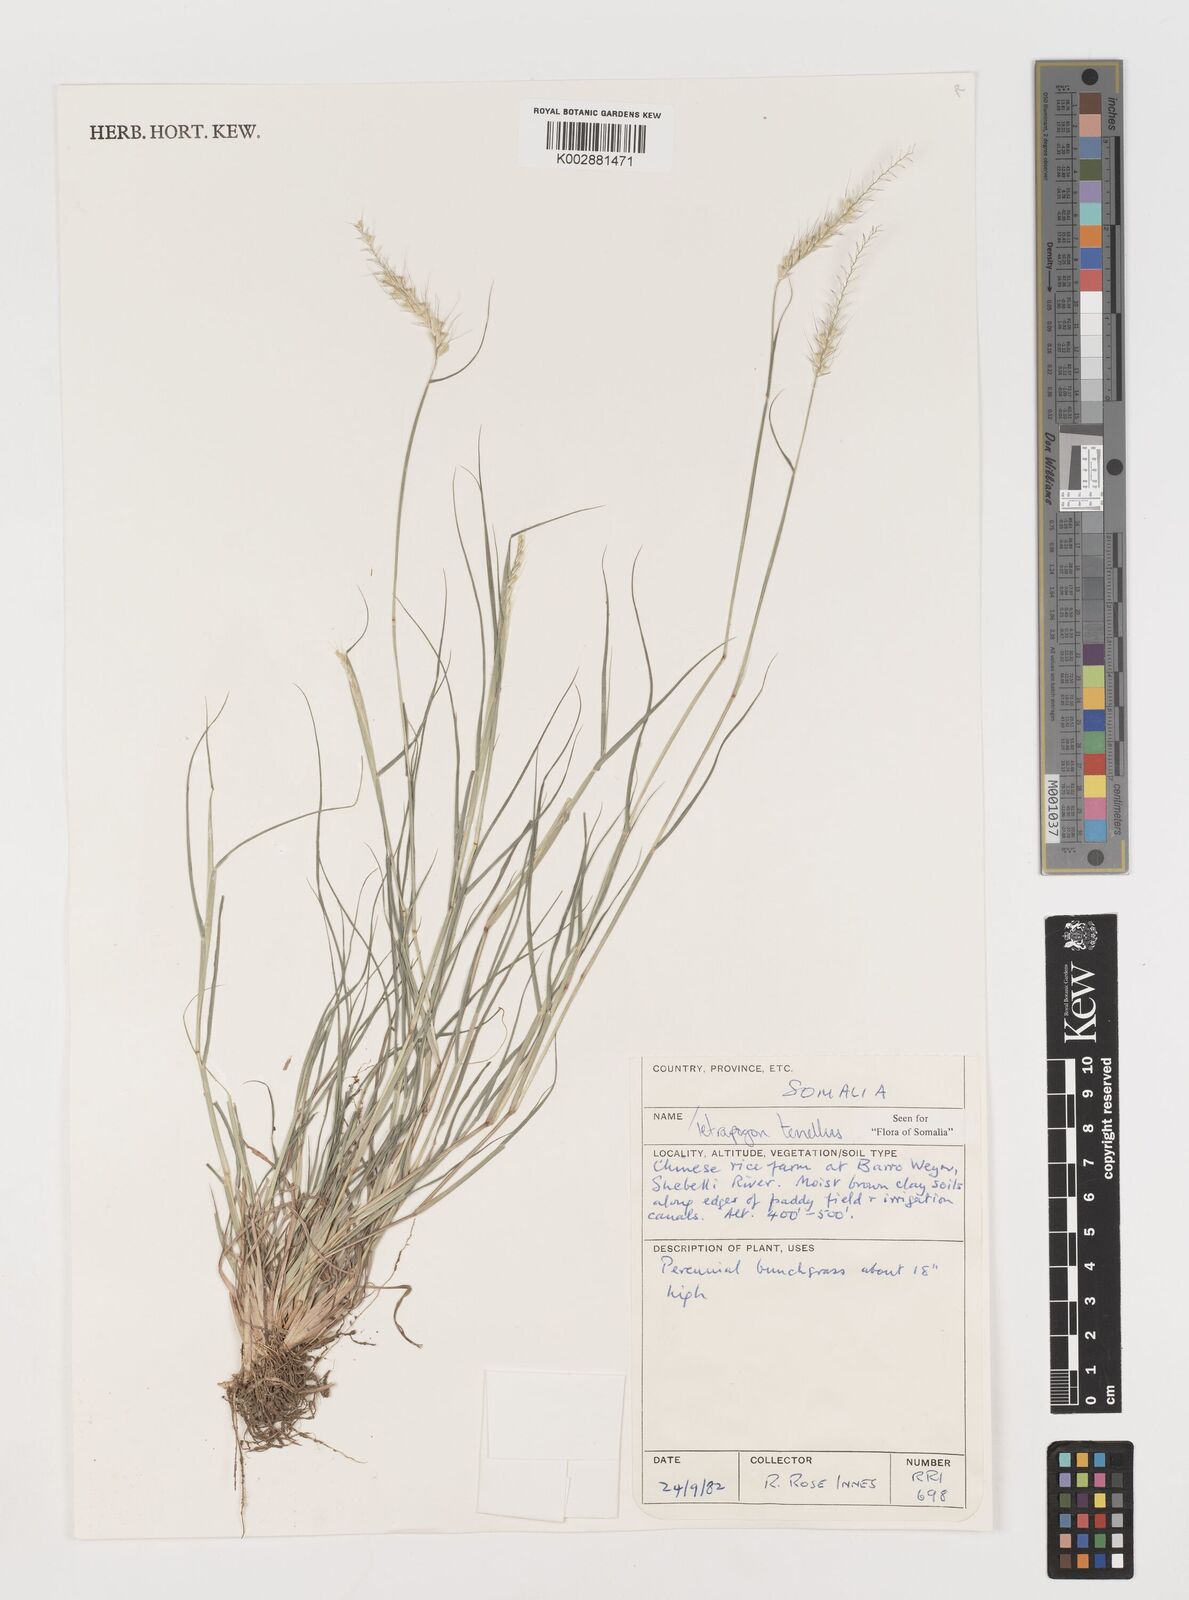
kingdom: Plantae
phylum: Tracheophyta
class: Liliopsida
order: Poales
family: Poaceae
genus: Tetrapogon
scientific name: Tetrapogon tenellus
